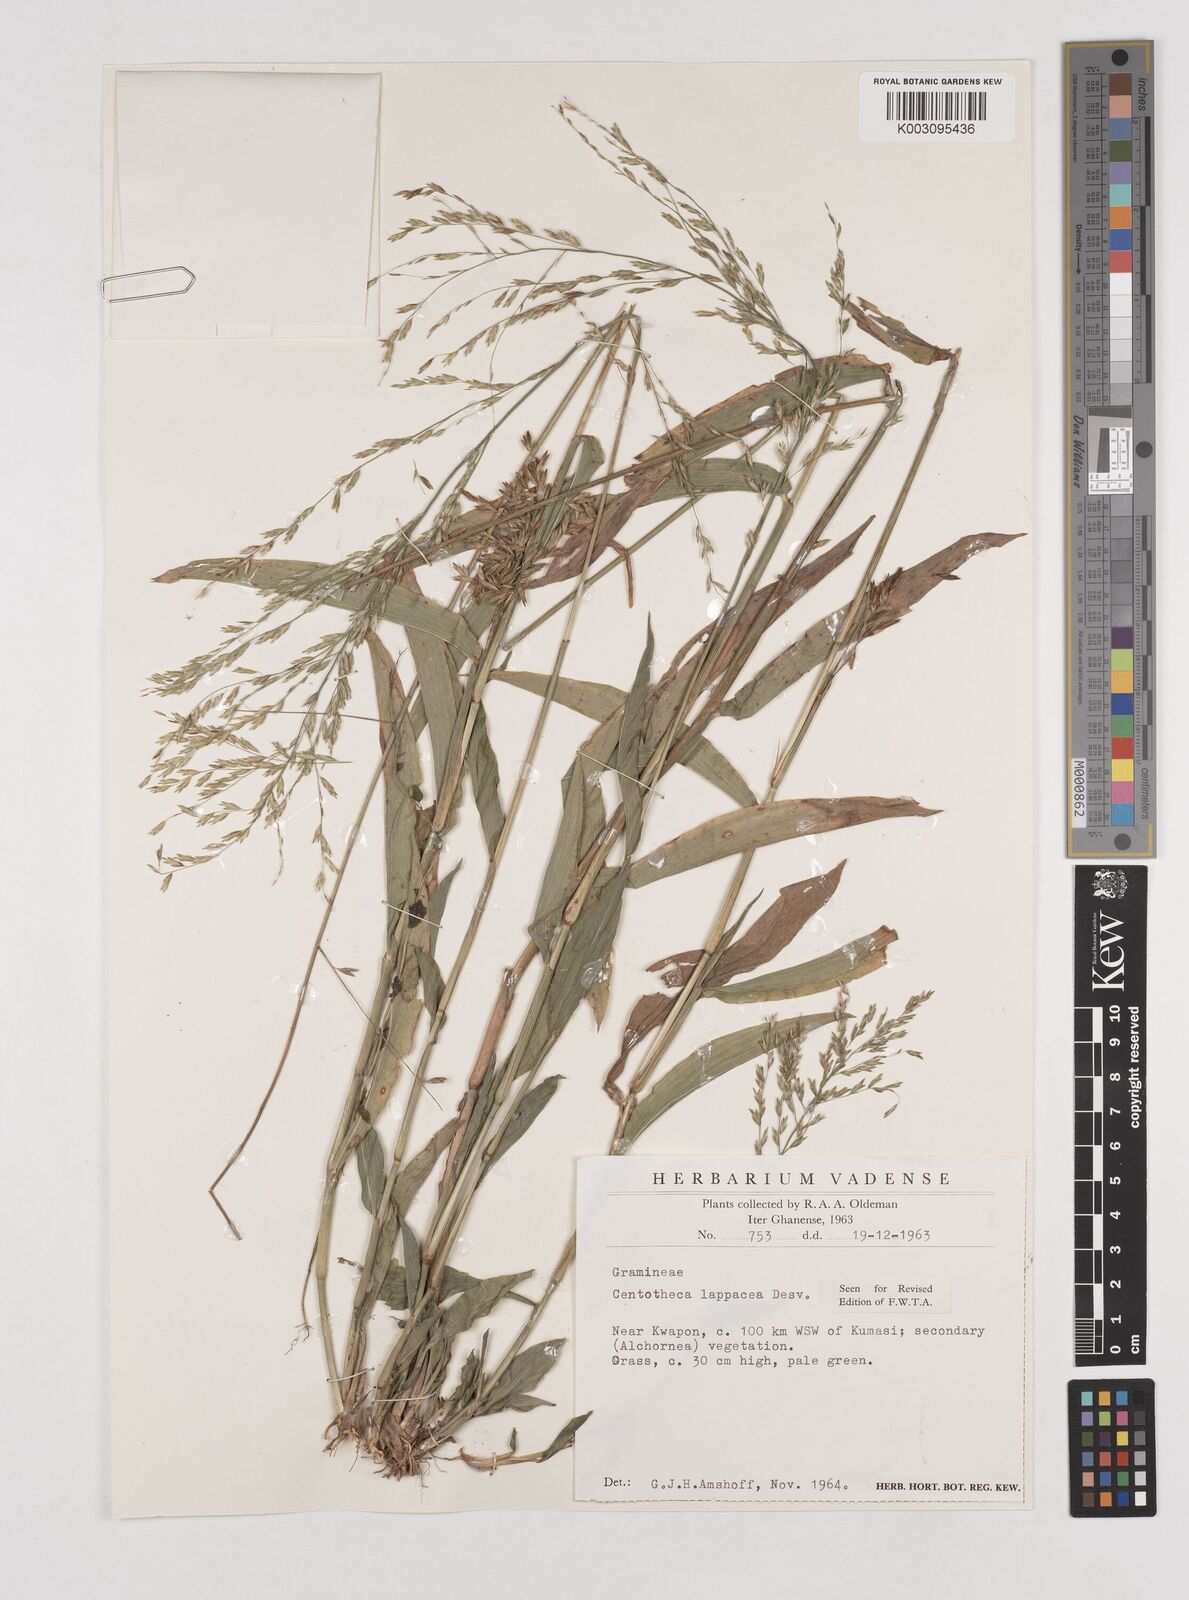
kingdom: Plantae
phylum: Tracheophyta
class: Liliopsida
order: Poales
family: Poaceae
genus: Centotheca
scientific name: Centotheca lappacea
